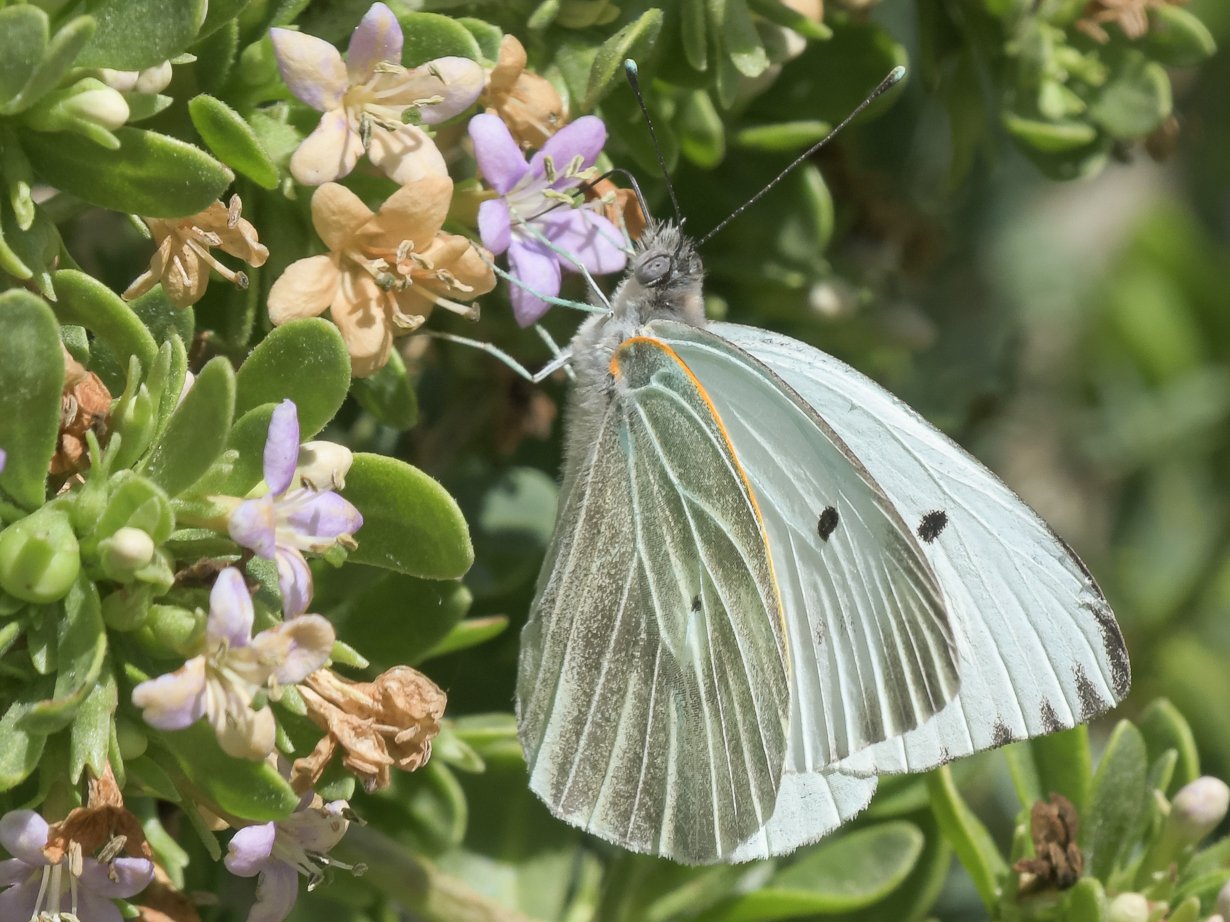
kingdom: Animalia
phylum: Arthropoda
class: Insecta
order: Lepidoptera
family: Pieridae
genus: Ascia
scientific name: Ascia monuste
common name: Great Southern White
